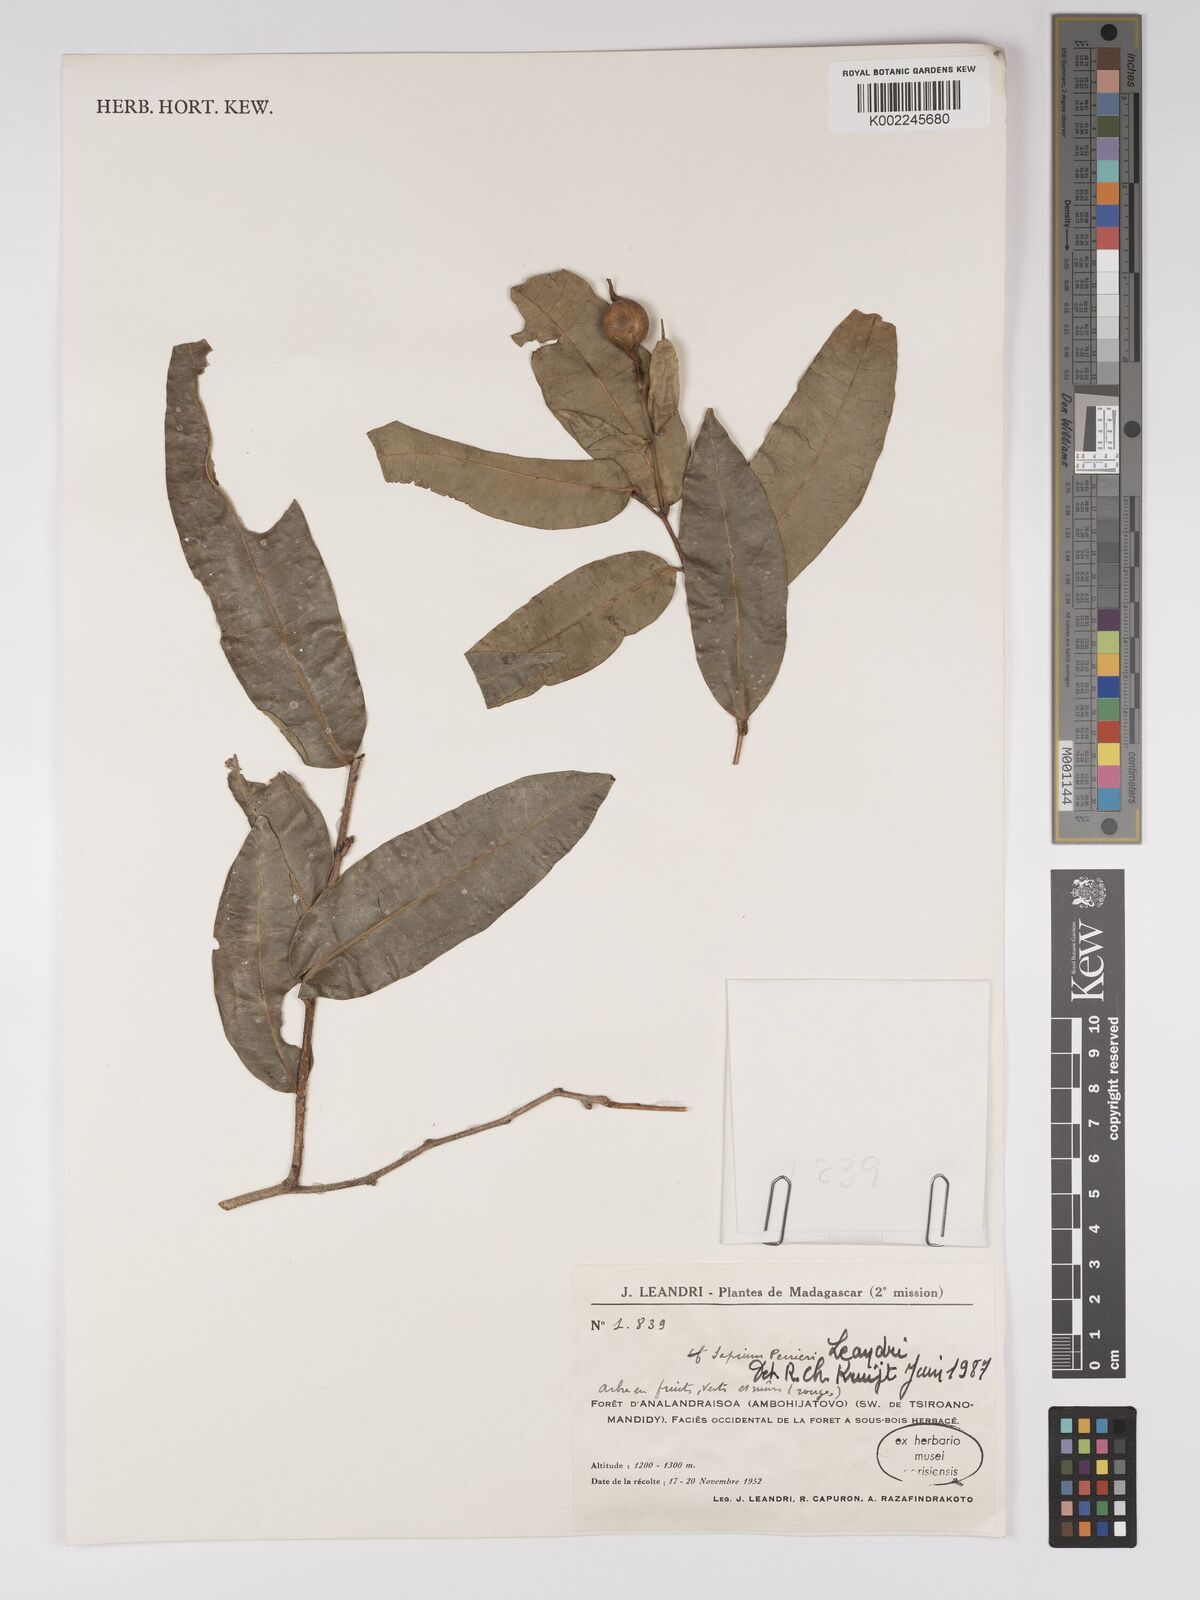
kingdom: Plantae
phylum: Tracheophyta
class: Magnoliopsida
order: Malpighiales
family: Euphorbiaceae
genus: Anomostachys
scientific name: Anomostachys lastellei
